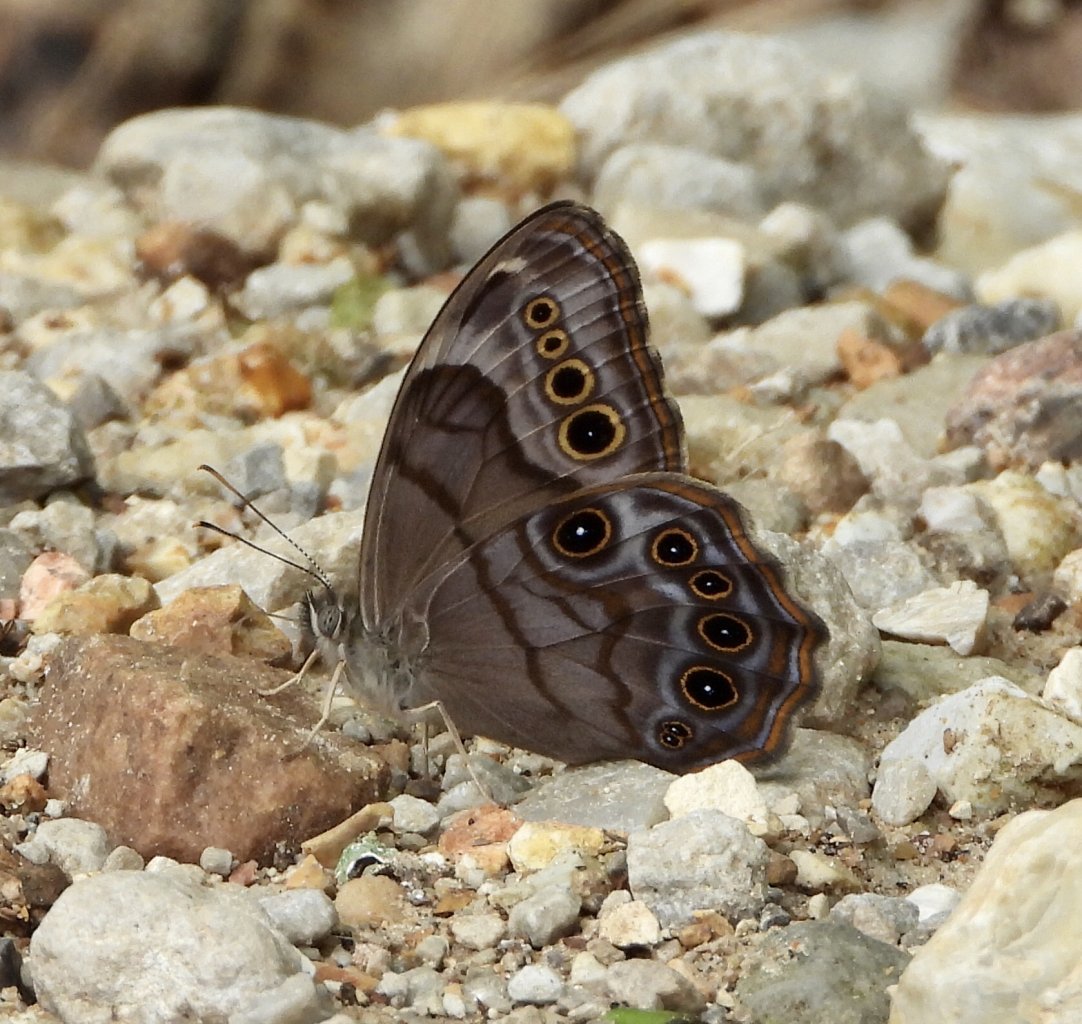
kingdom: Animalia
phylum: Arthropoda
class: Insecta
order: Lepidoptera
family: Nymphalidae
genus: Lethe
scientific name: Lethe anthedon
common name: Northern Pearly-Eye
